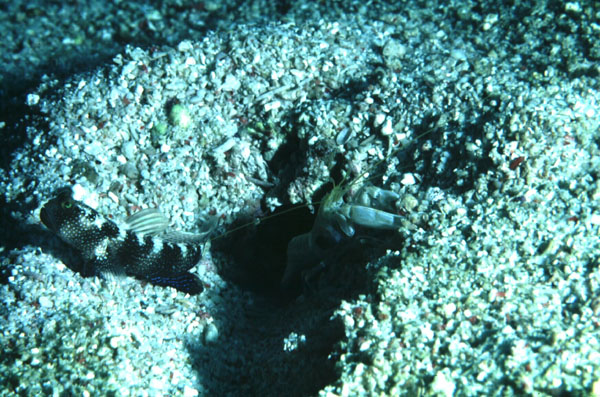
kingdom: Animalia
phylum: Chordata
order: Perciformes
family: Gobiidae
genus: Cryptocentrus
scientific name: Cryptocentrus fasciatus
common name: Barred prawn-goby
